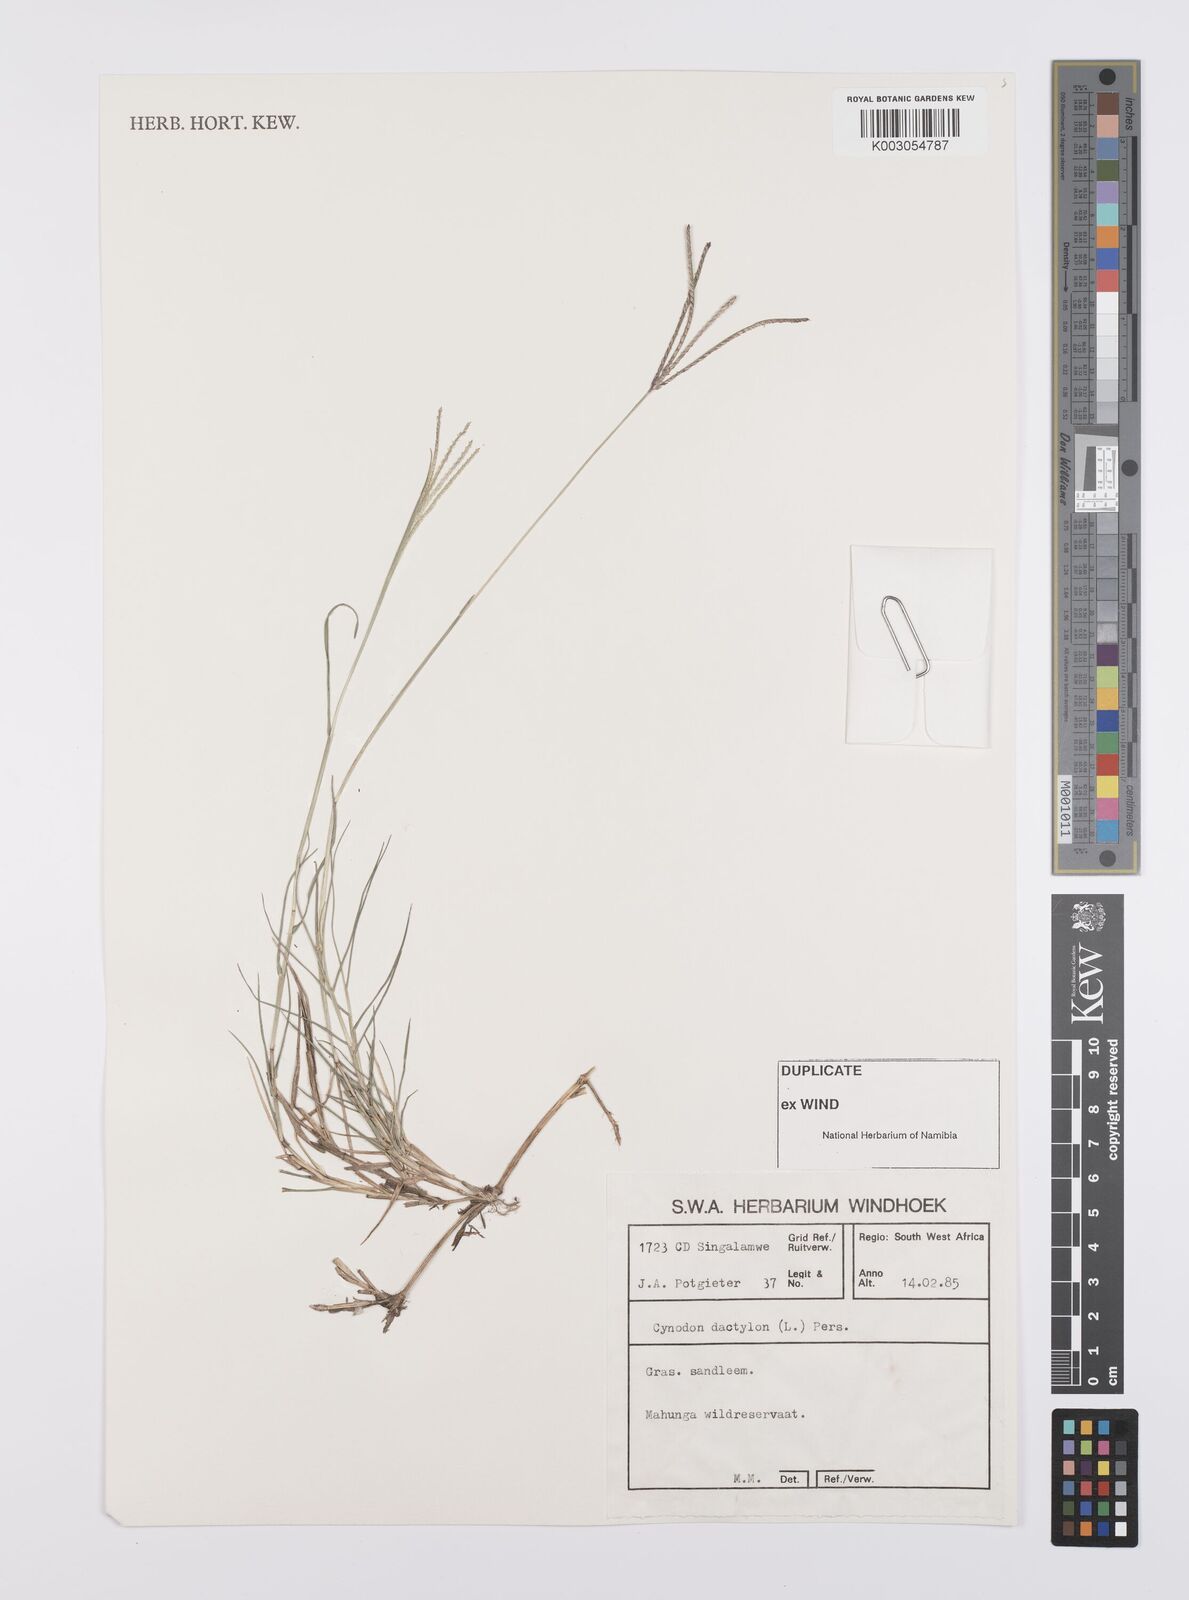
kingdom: Plantae
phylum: Tracheophyta
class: Liliopsida
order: Poales
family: Poaceae
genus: Cynodon
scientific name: Cynodon dactylon
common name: Bermuda grass
